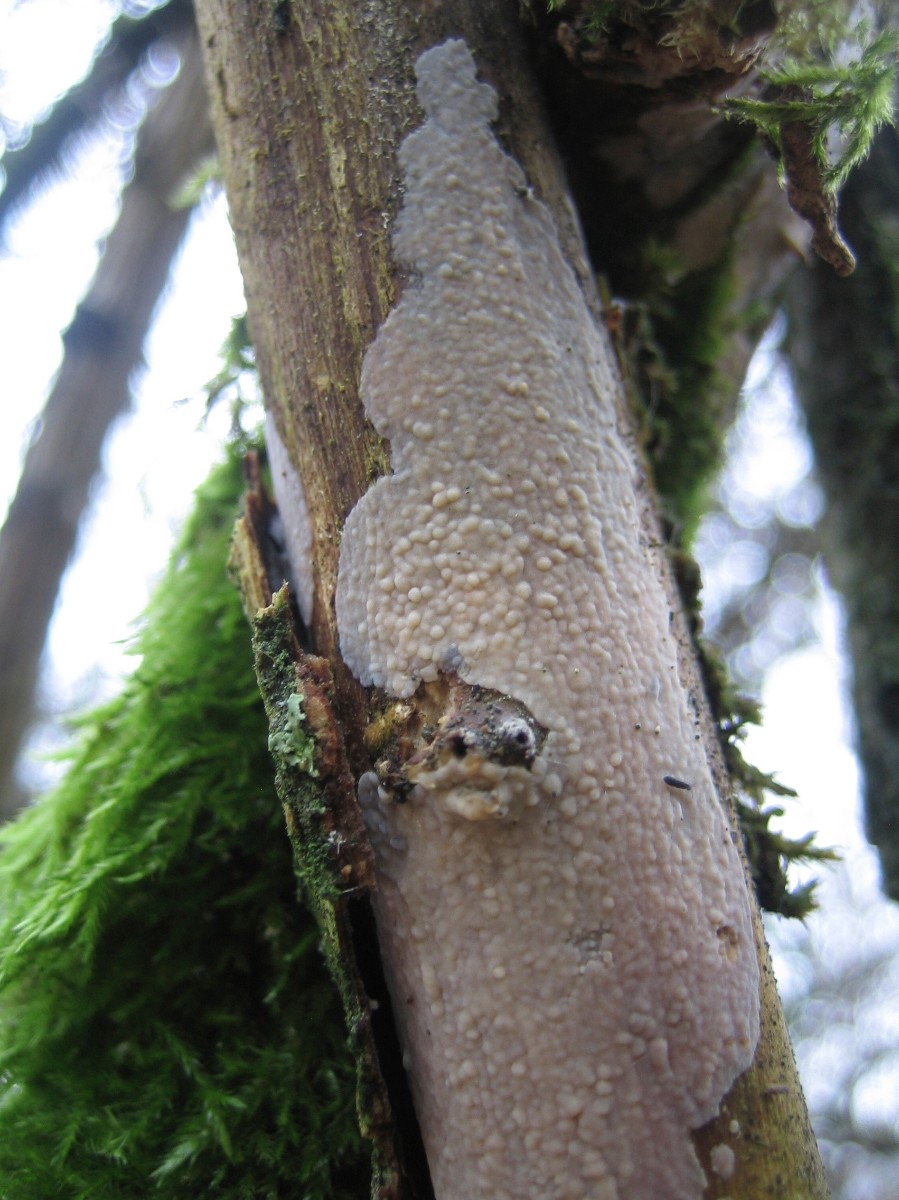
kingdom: Fungi
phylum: Basidiomycota
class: Agaricomycetes
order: Corticiales
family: Corticiaceae
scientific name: Corticiaceae
